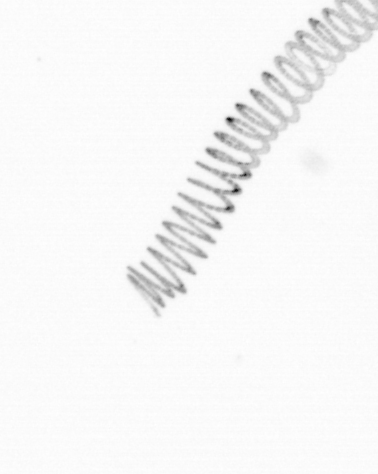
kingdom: Chromista
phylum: Ochrophyta
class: Bacillariophyceae
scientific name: Bacillariophyceae
